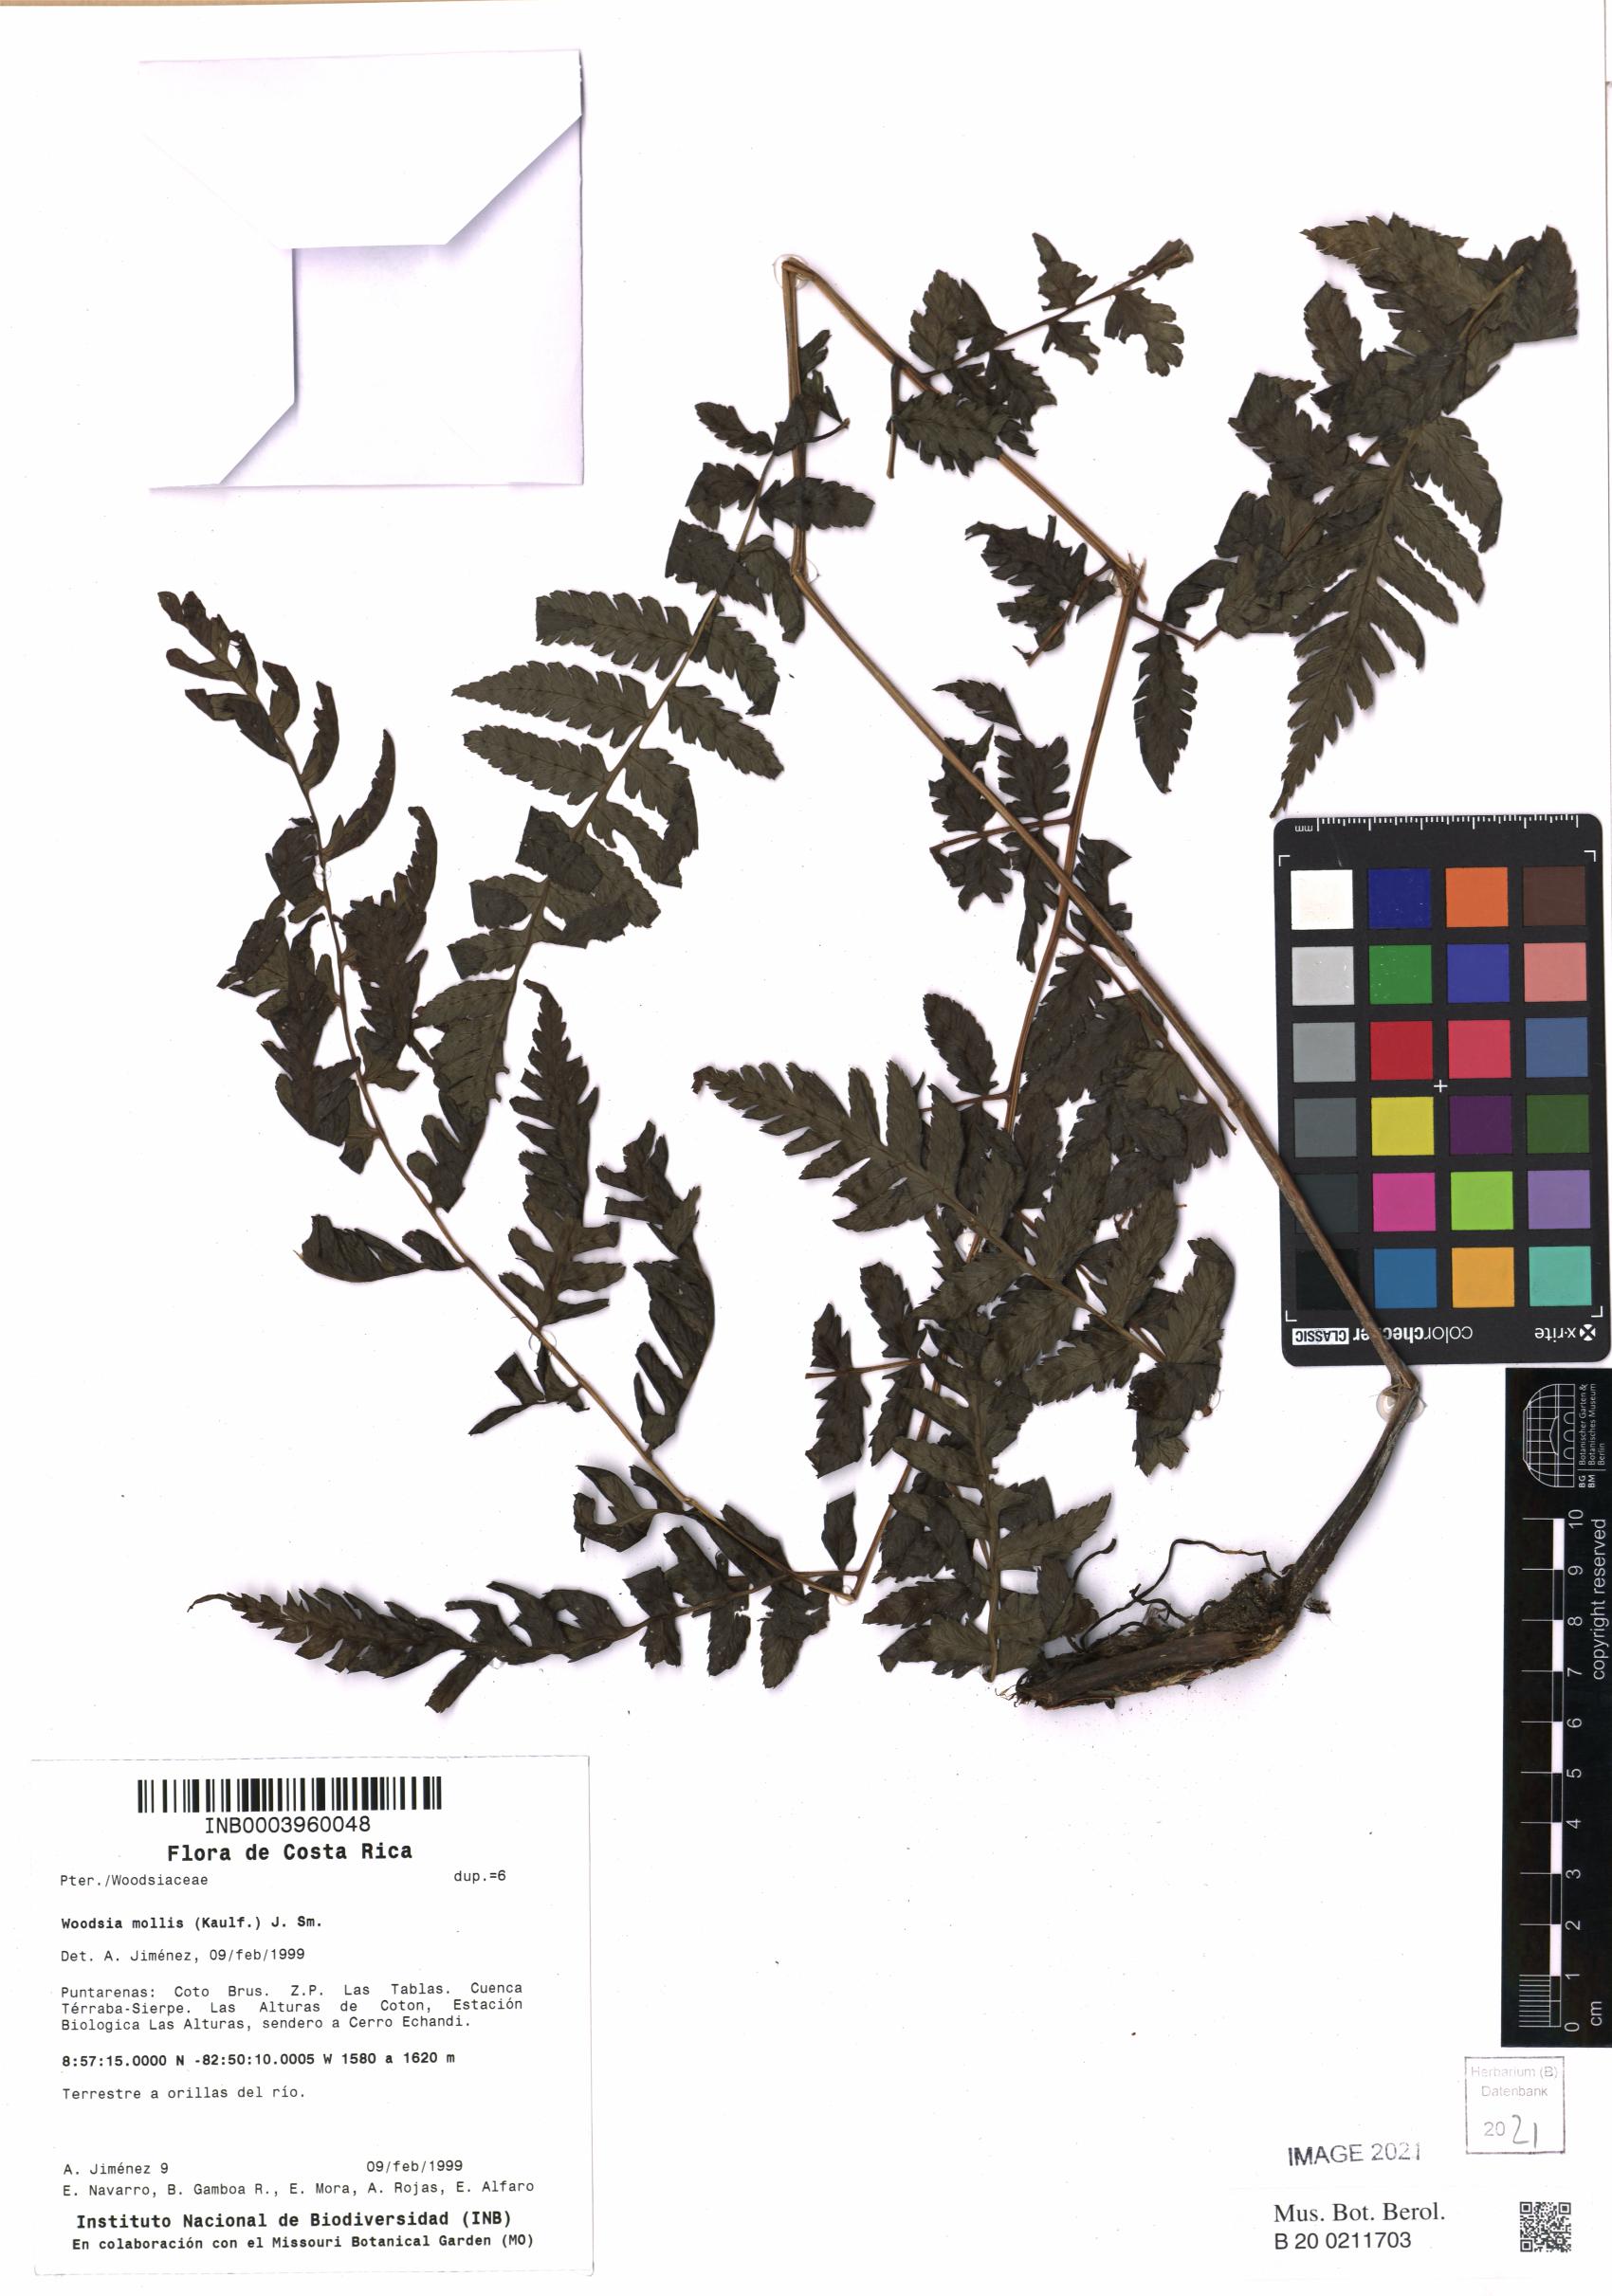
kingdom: Plantae
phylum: Tracheophyta
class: Polypodiopsida
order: Polypodiales
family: Woodsiaceae
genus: Physematium
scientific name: Physematium molle
